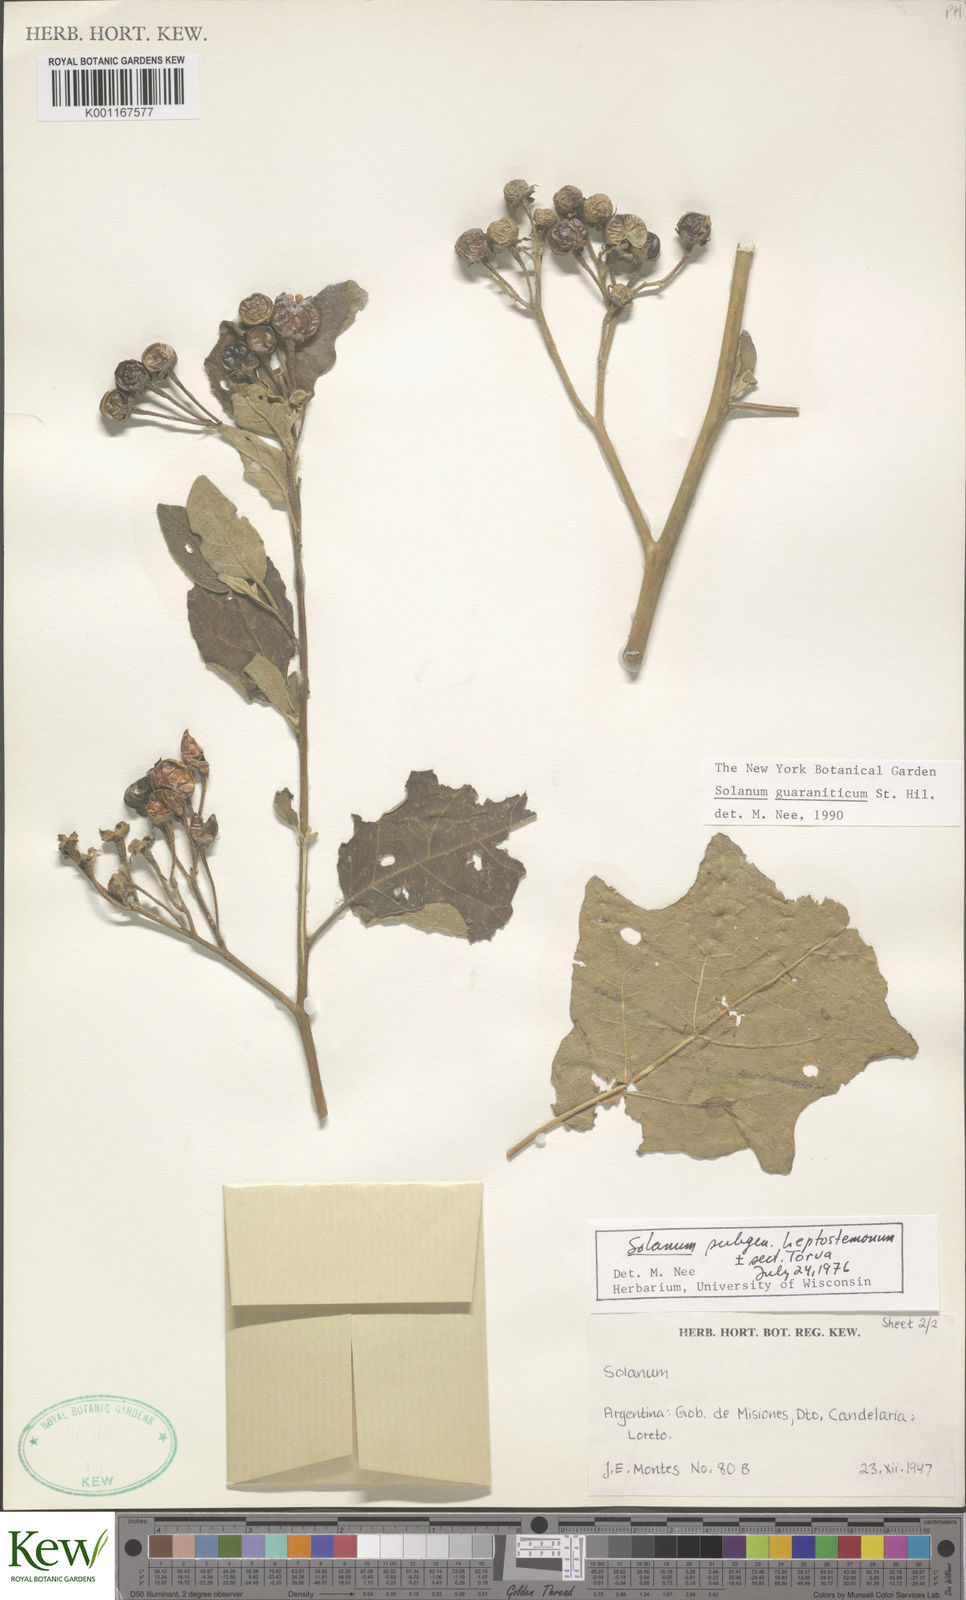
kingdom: Plantae
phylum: Tracheophyta
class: Magnoliopsida
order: Solanales
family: Solanaceae
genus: Solanum
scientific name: Solanum guaraniticum
